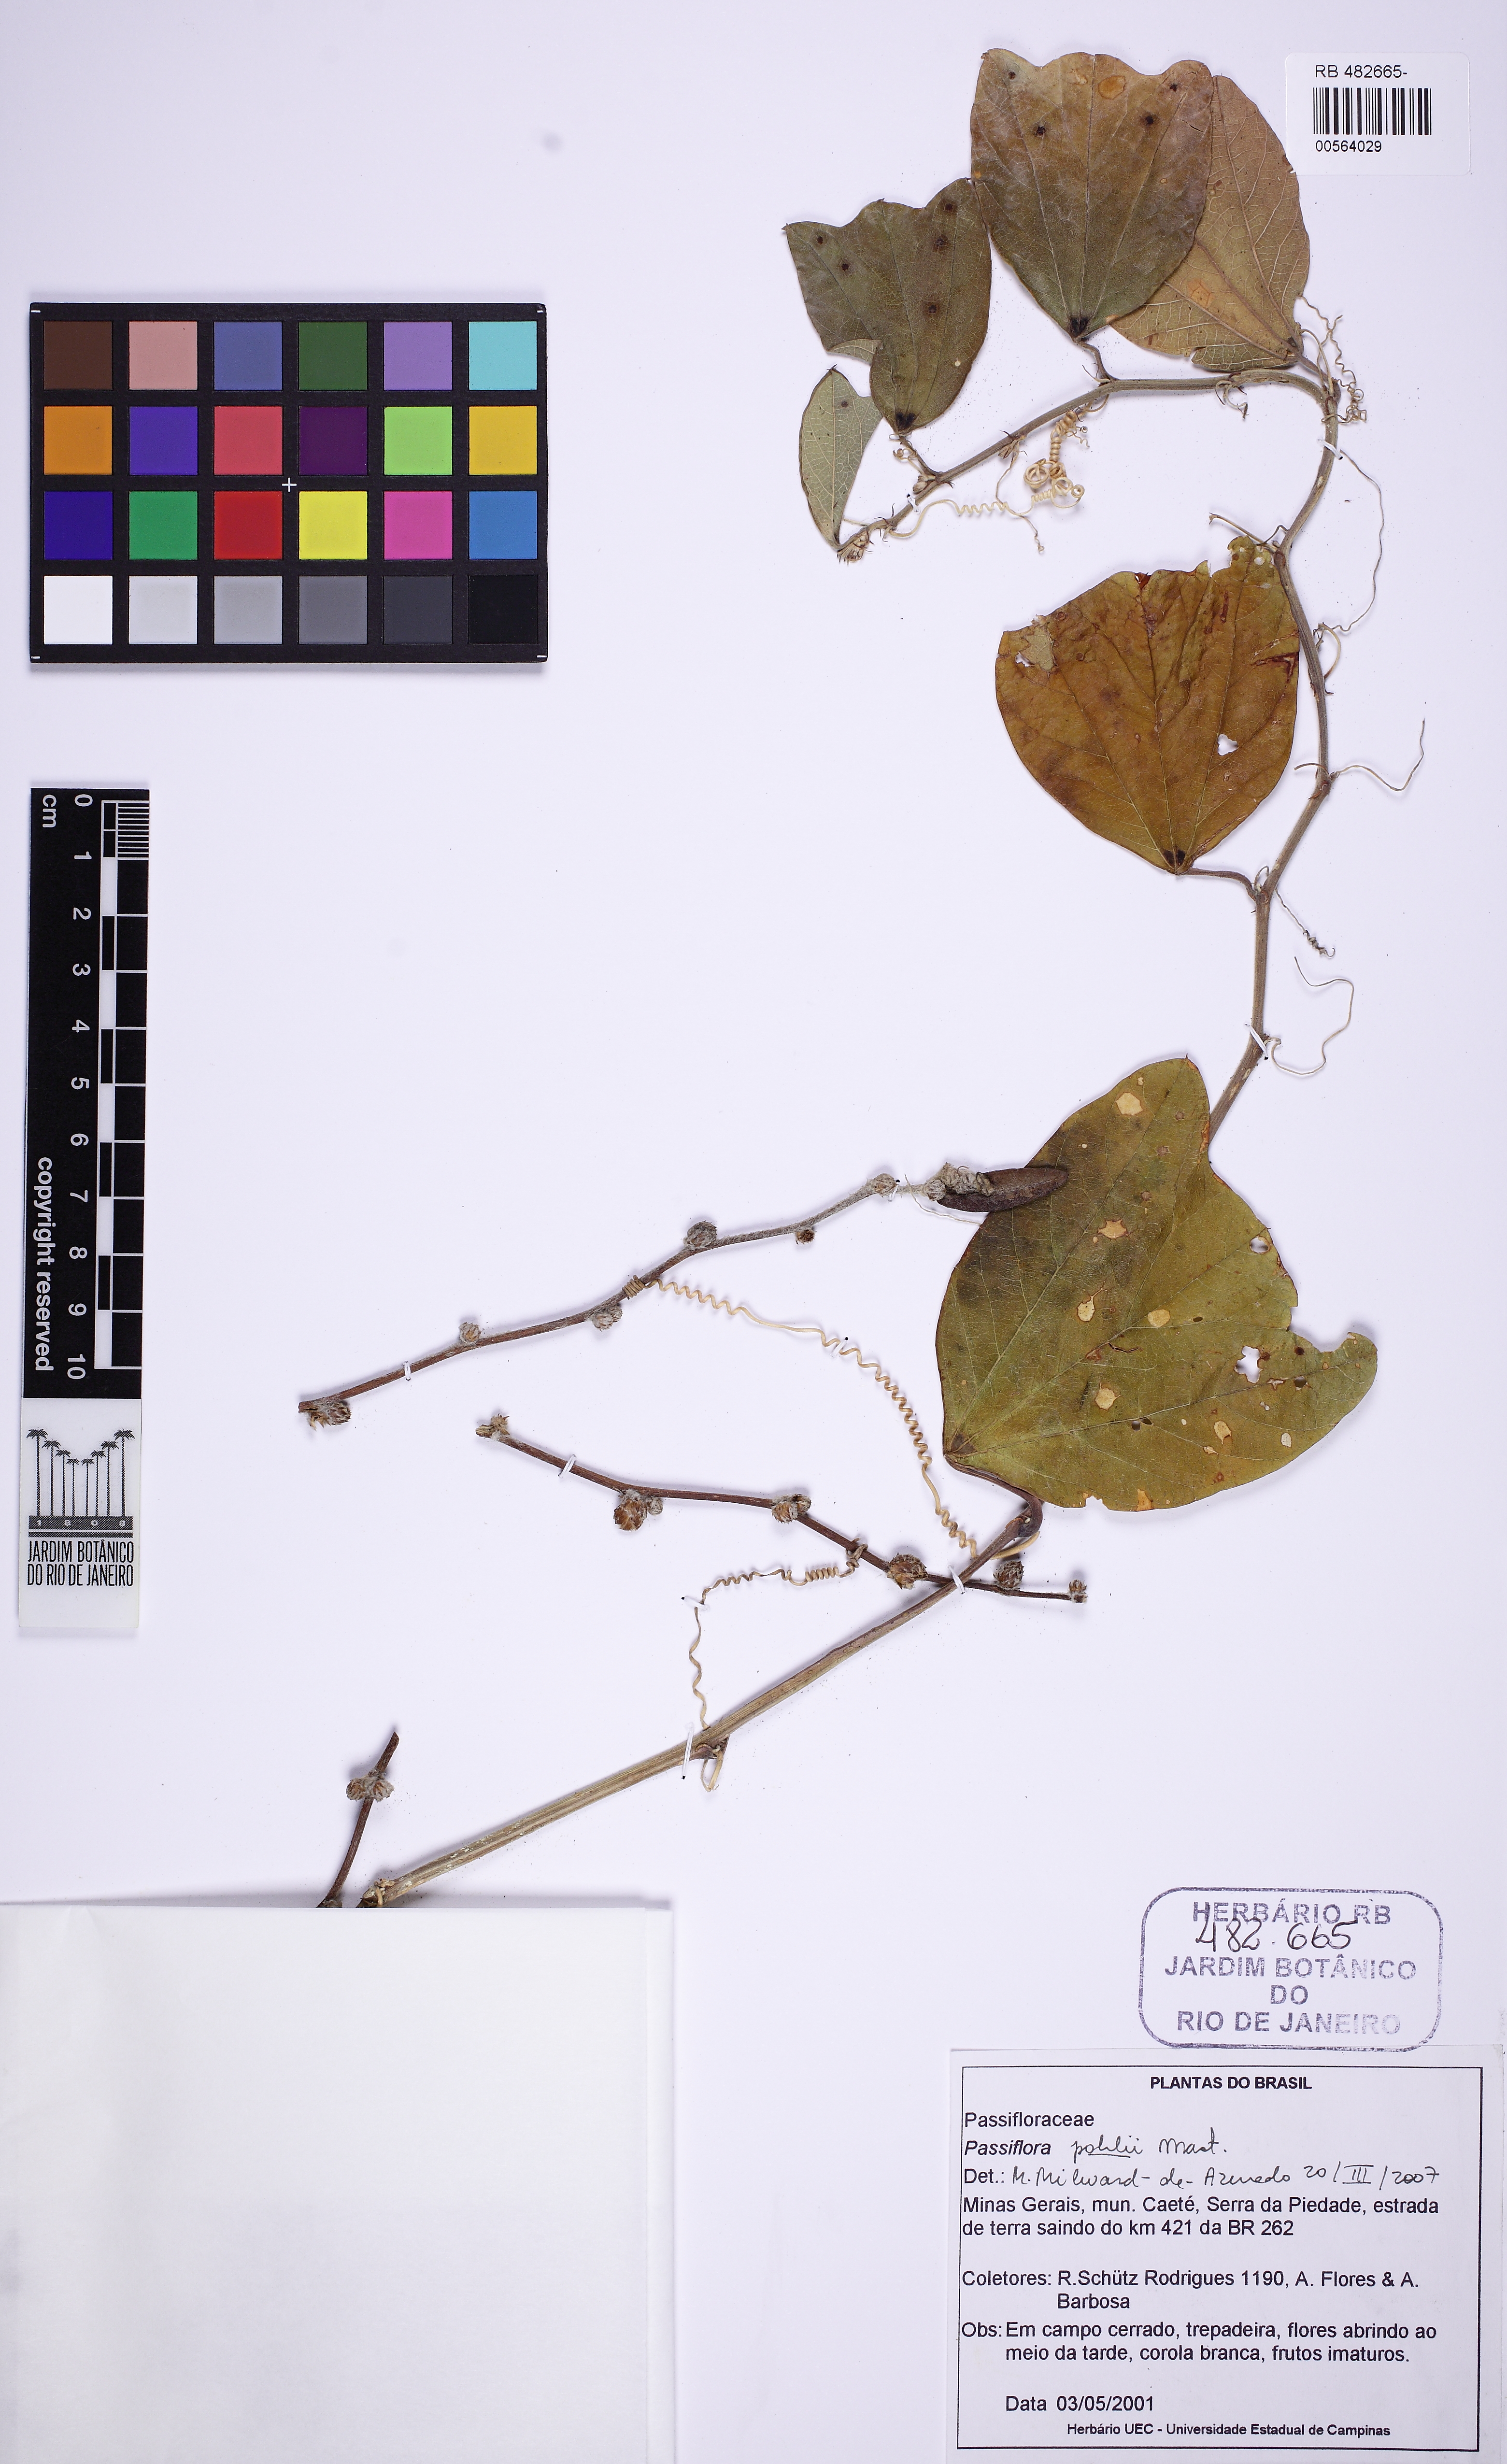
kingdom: Plantae
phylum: Tracheophyta
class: Magnoliopsida
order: Malpighiales
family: Passifloraceae
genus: Passiflora
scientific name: Passiflora pohlii
